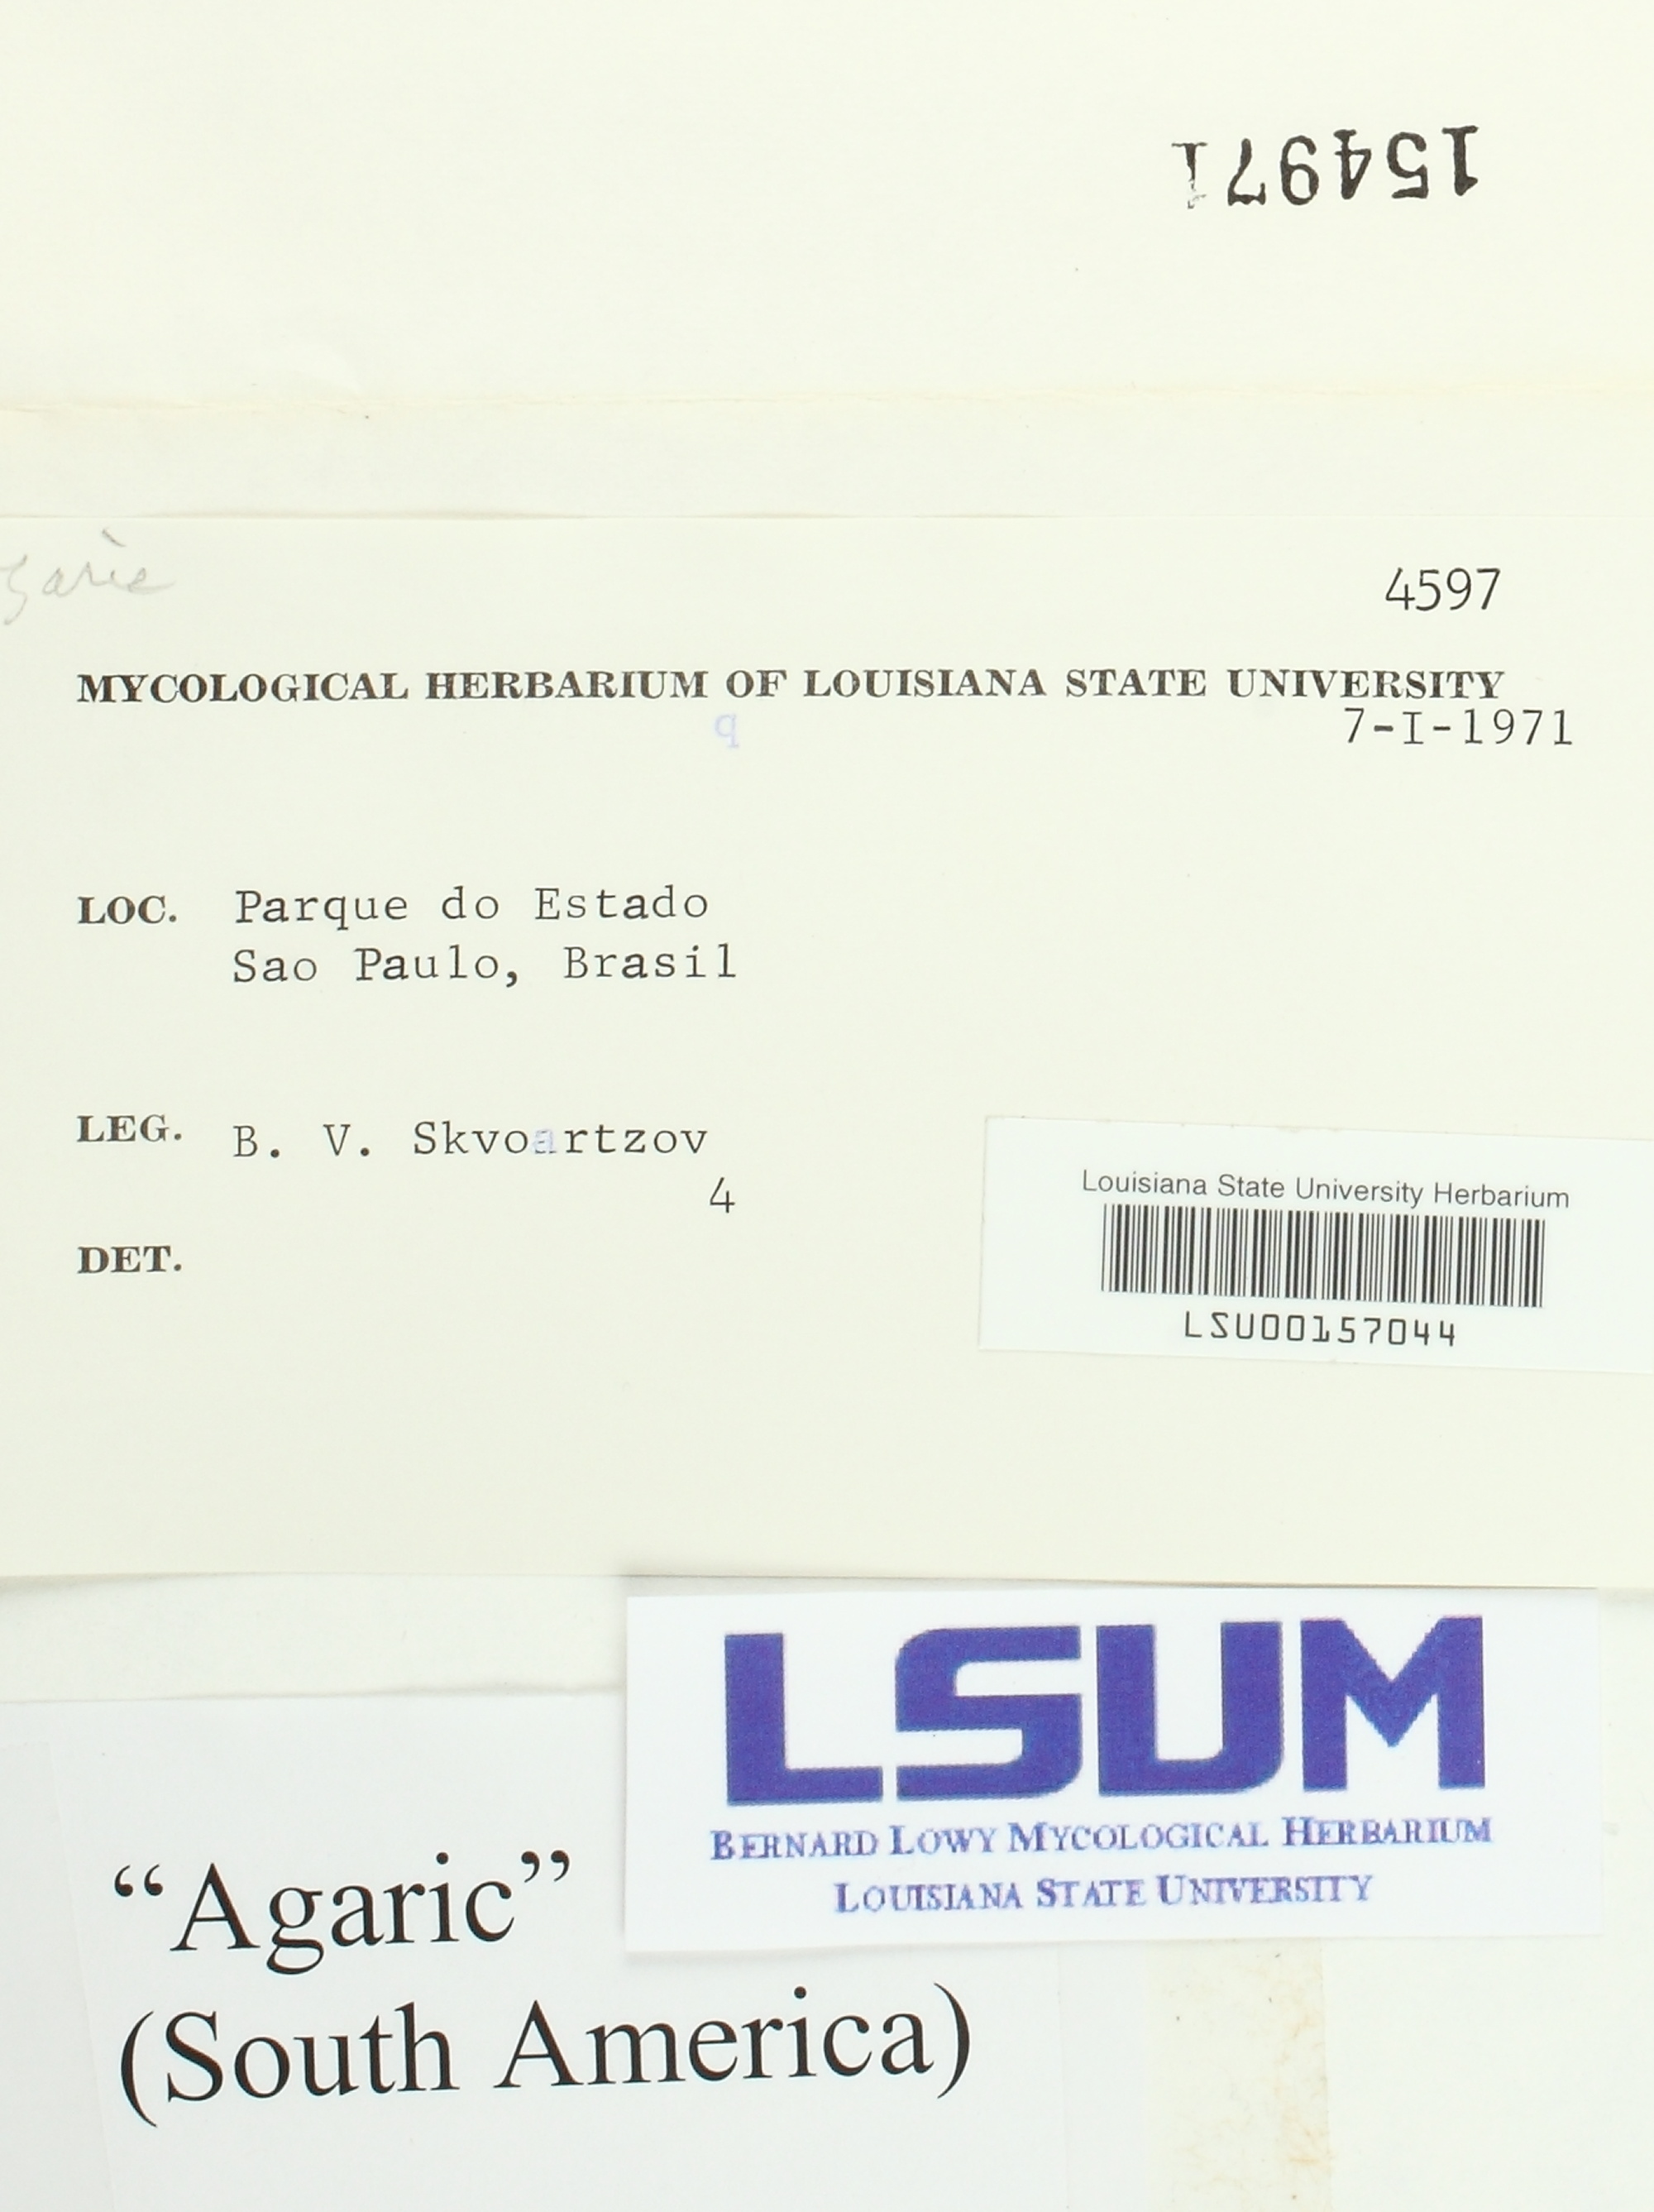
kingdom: Fungi
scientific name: Fungi
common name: Fungi
